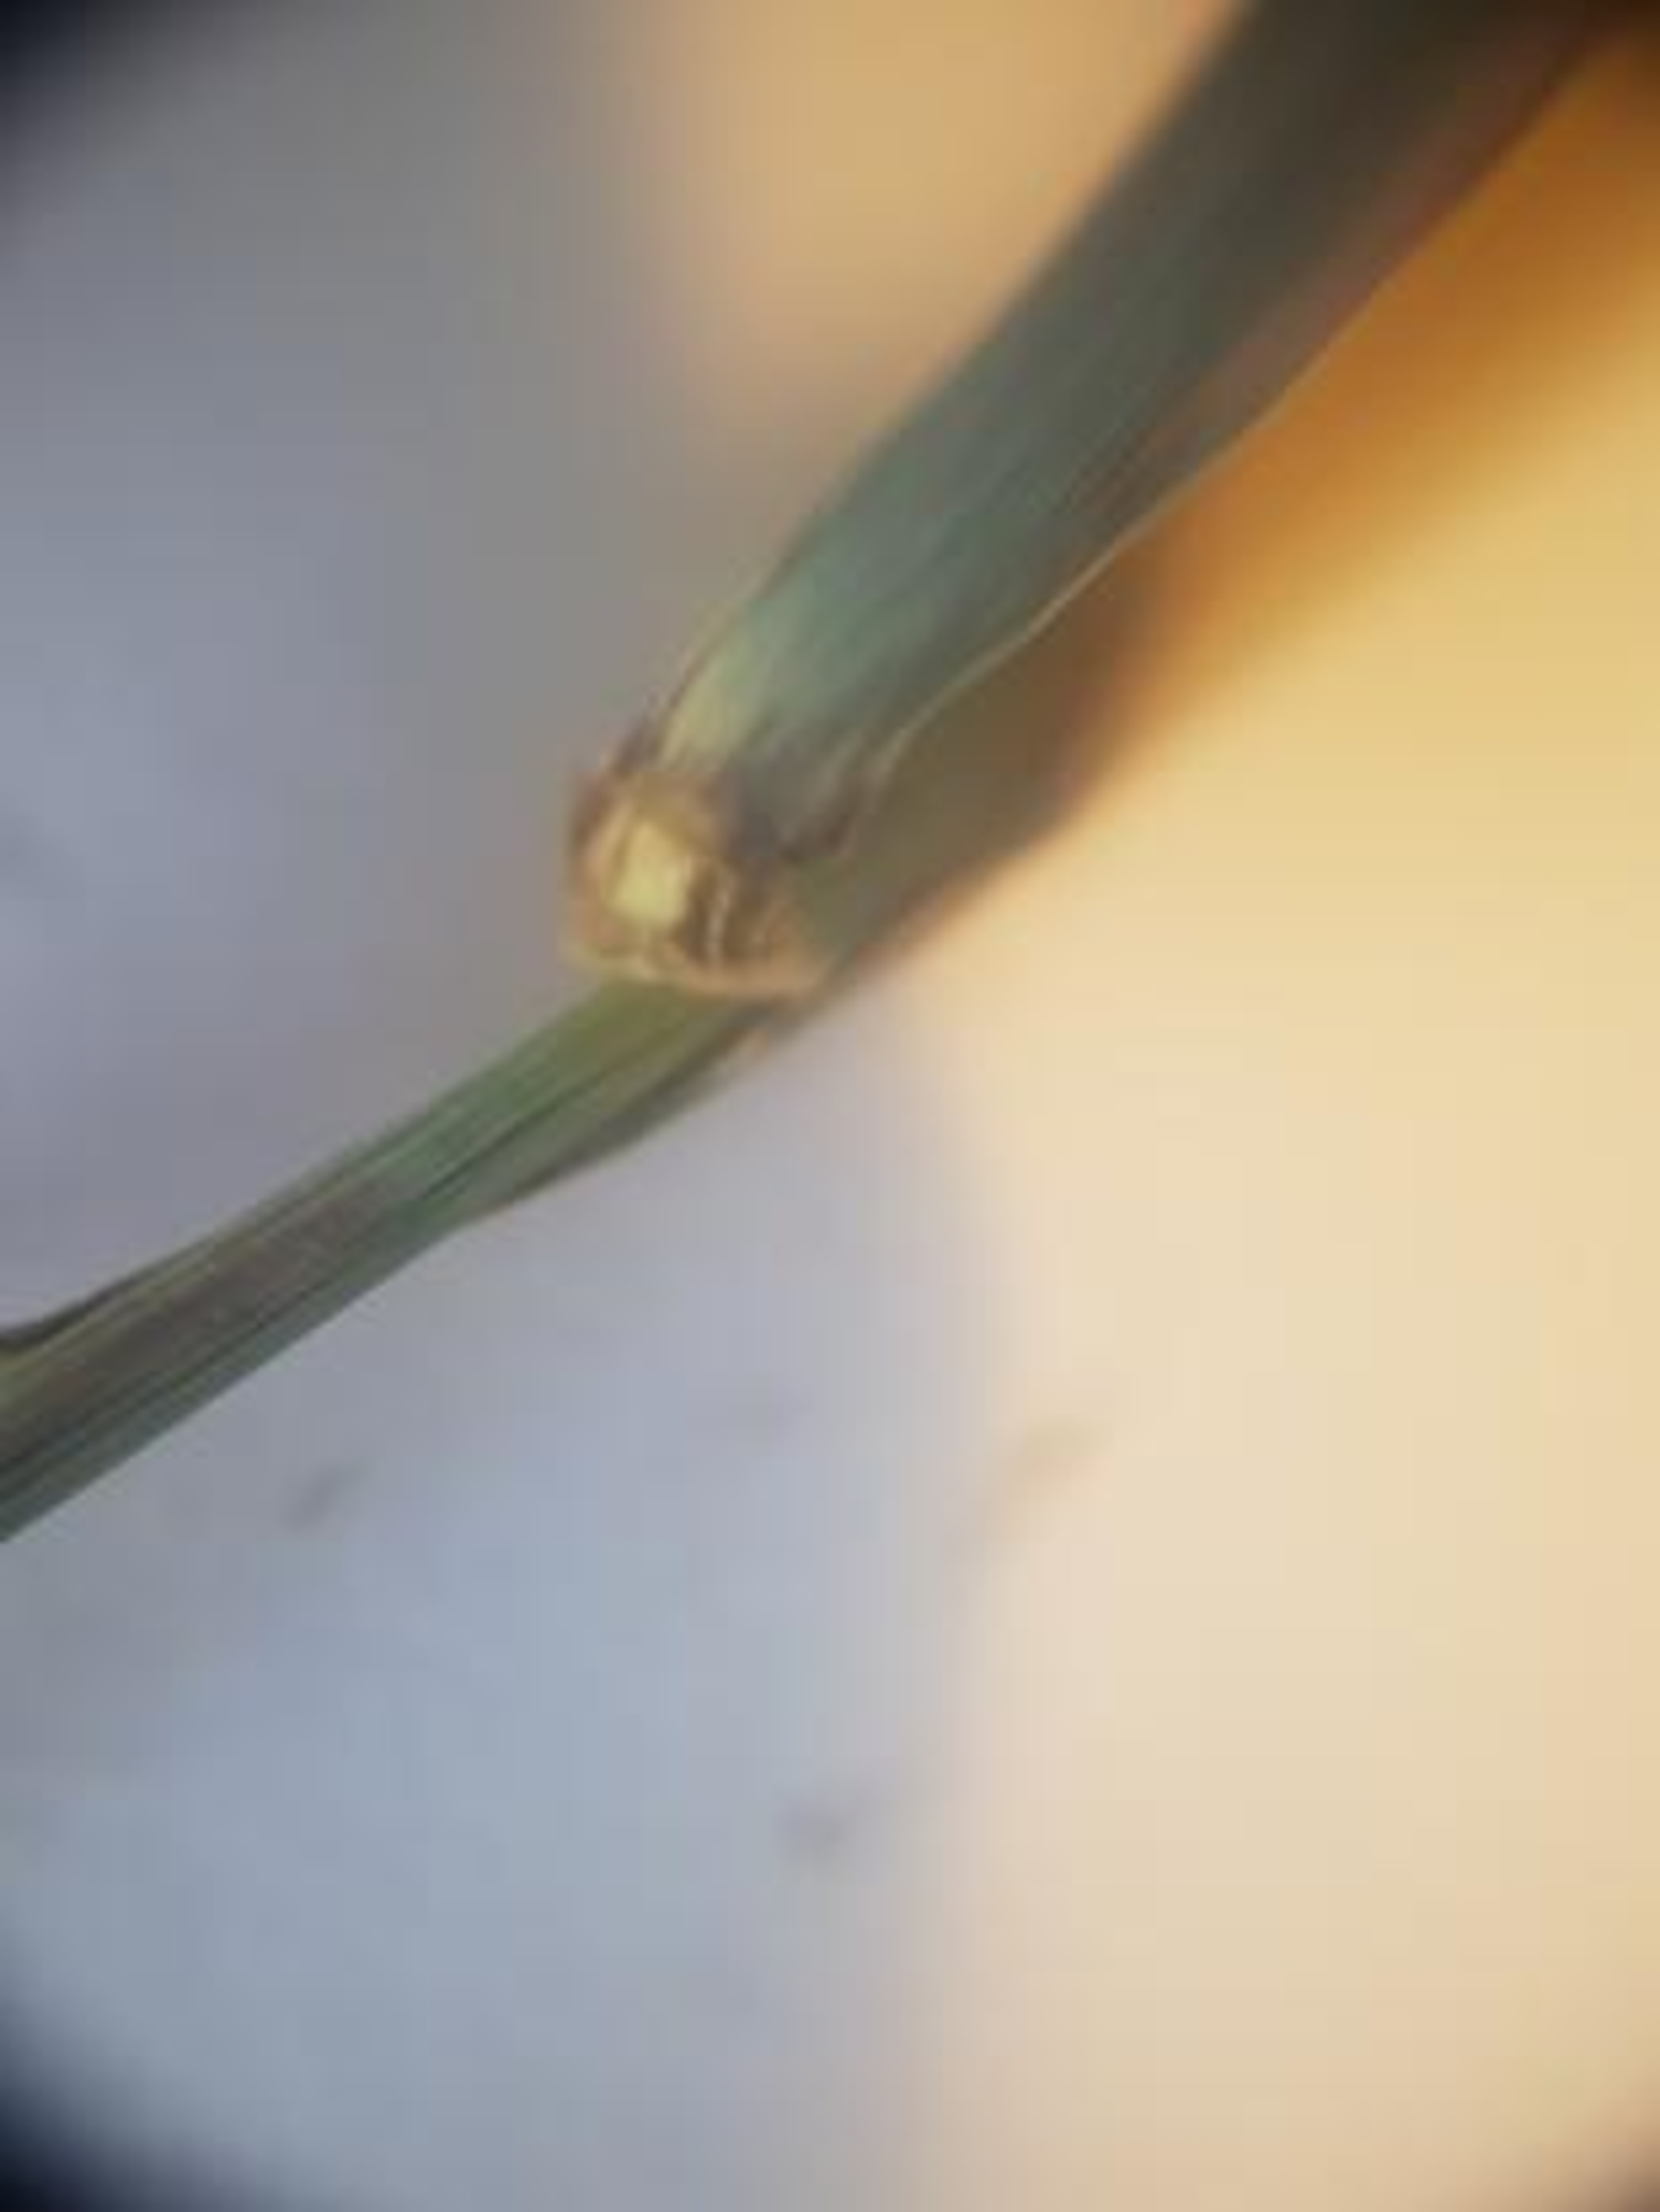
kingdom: Plantae
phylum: Tracheophyta
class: Liliopsida
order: Poales
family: Poaceae
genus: Lolium
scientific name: Lolium perenne
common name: Almindelig rajgræs
